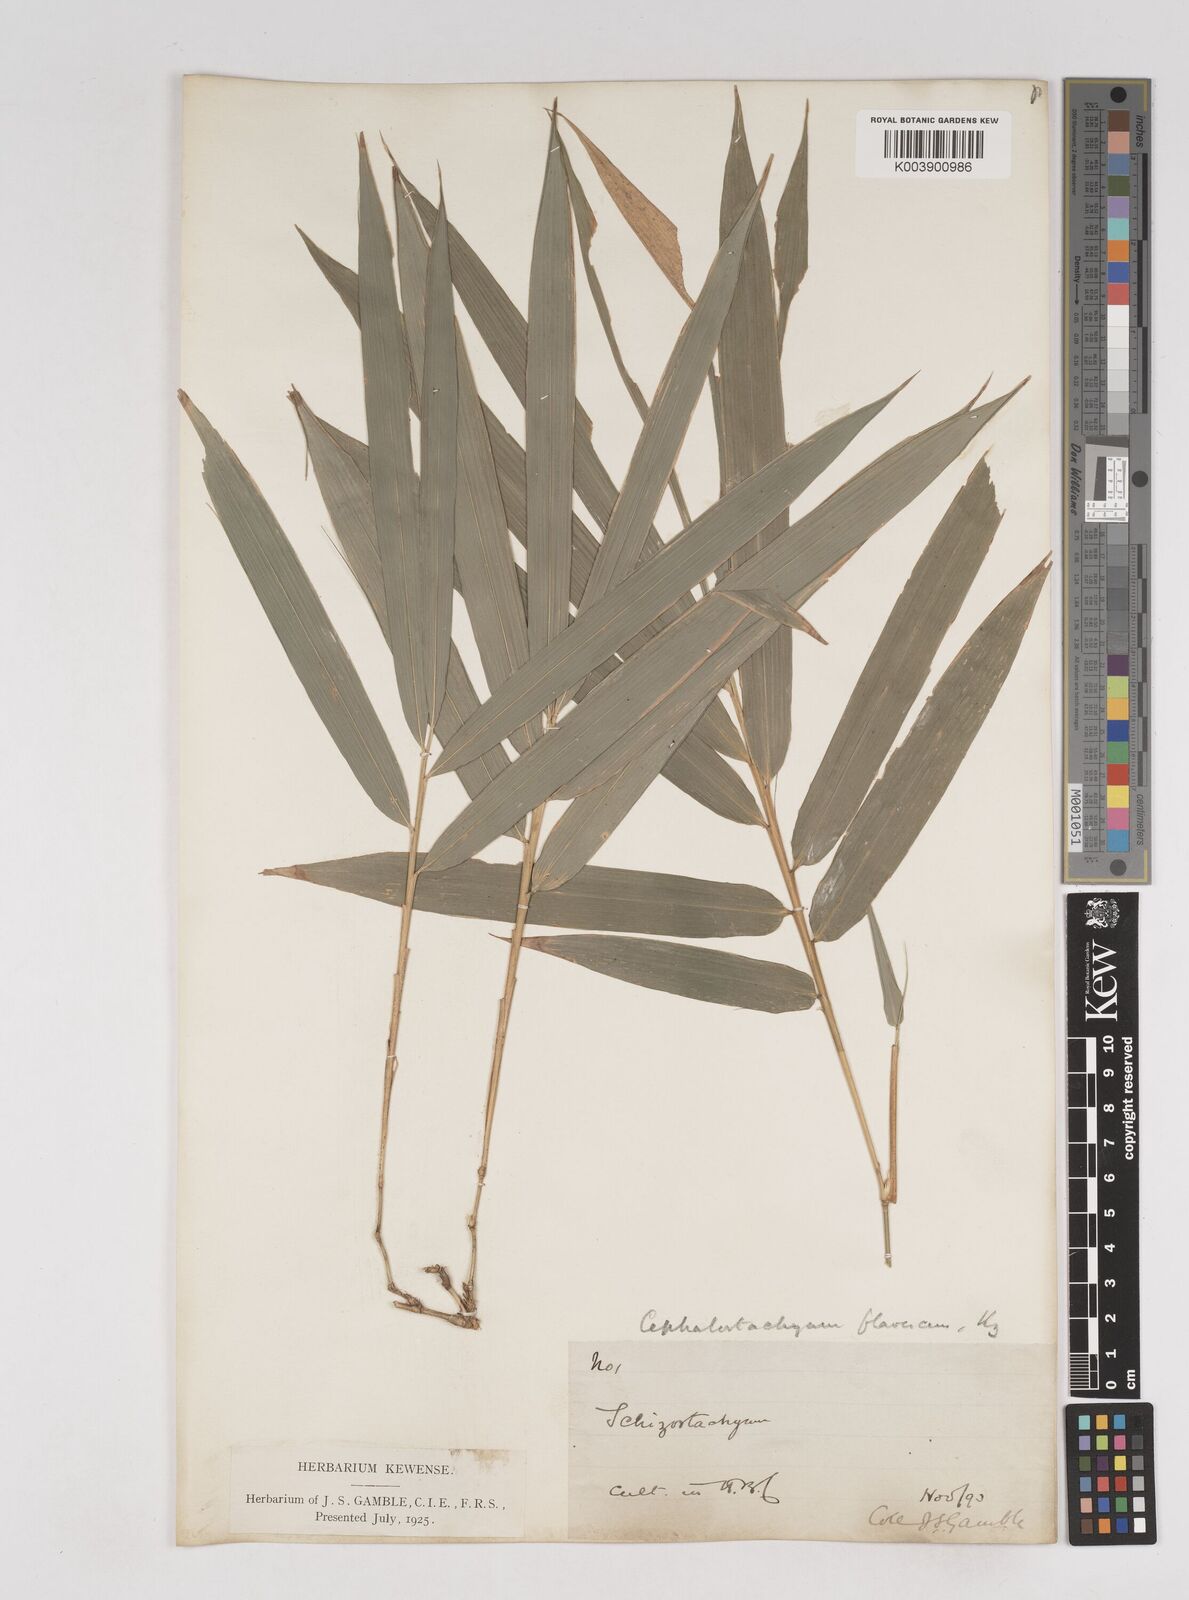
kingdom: Plantae
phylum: Tracheophyta
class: Liliopsida
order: Poales
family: Poaceae
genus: Cephalostachyum
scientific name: Cephalostachyum flavescens
